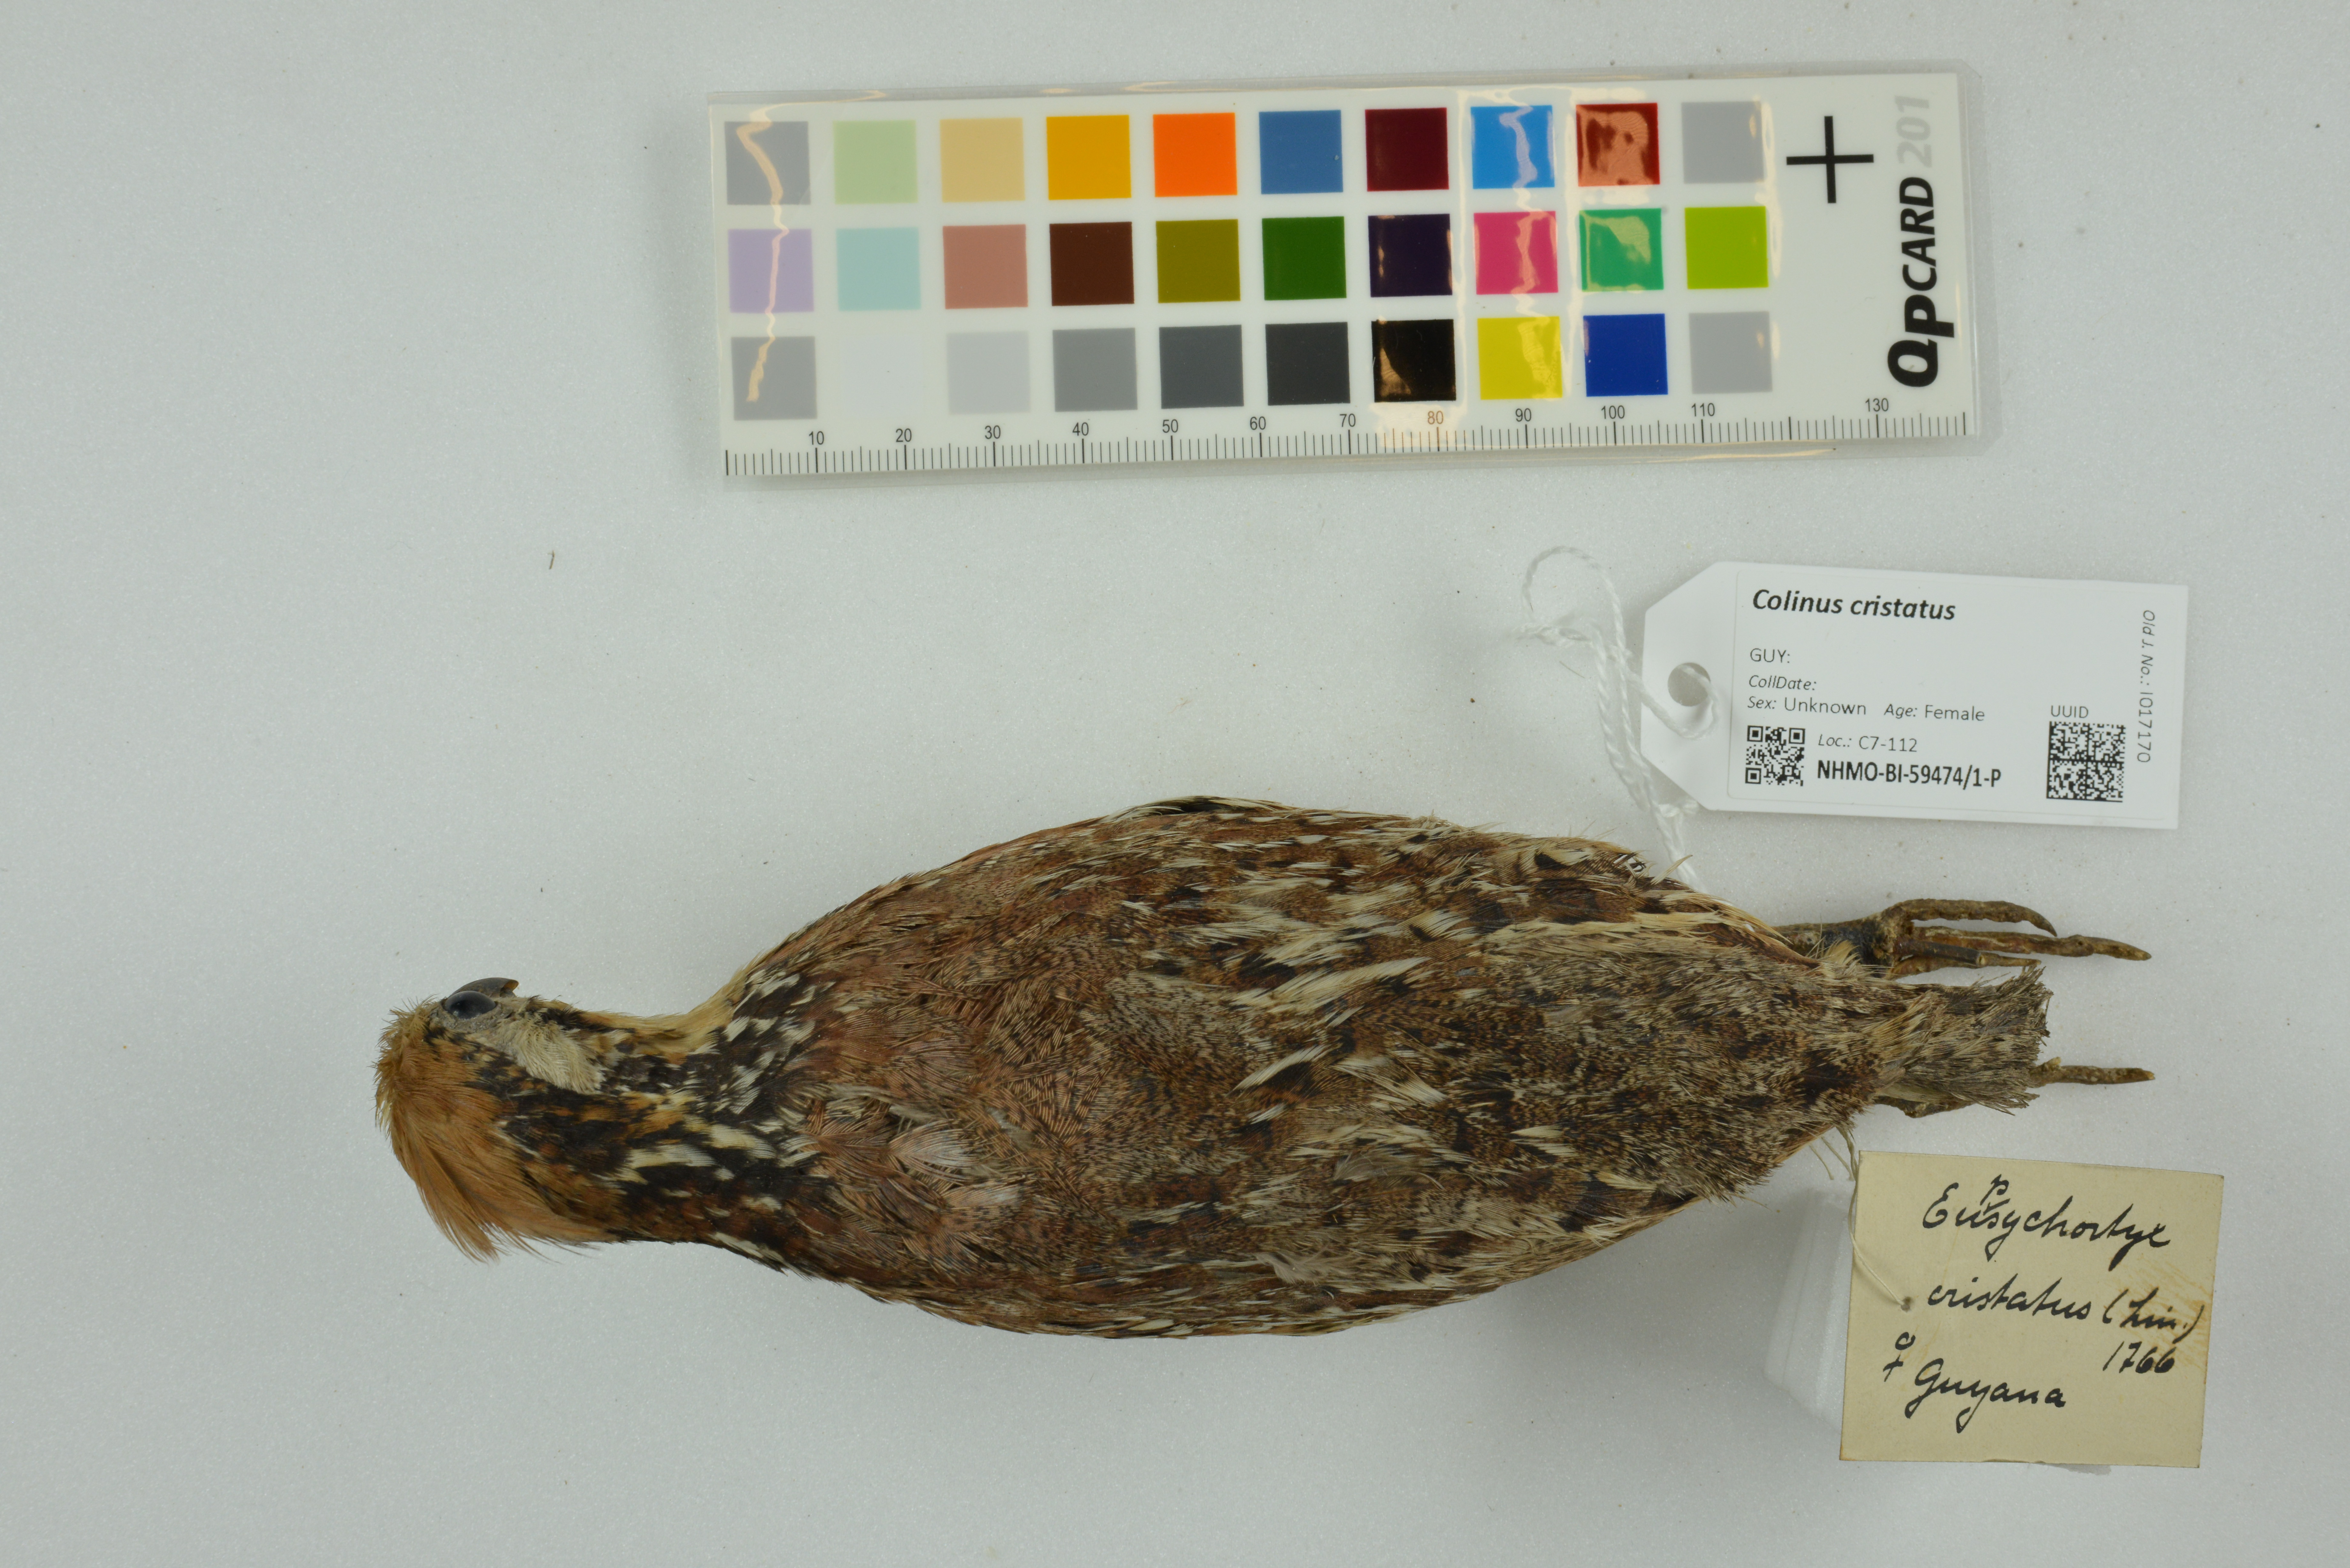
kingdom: Animalia
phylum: Chordata
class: Aves
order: Galliformes
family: Odontophoridae
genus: Colinus
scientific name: Colinus cristatus
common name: Crested bobwhite
